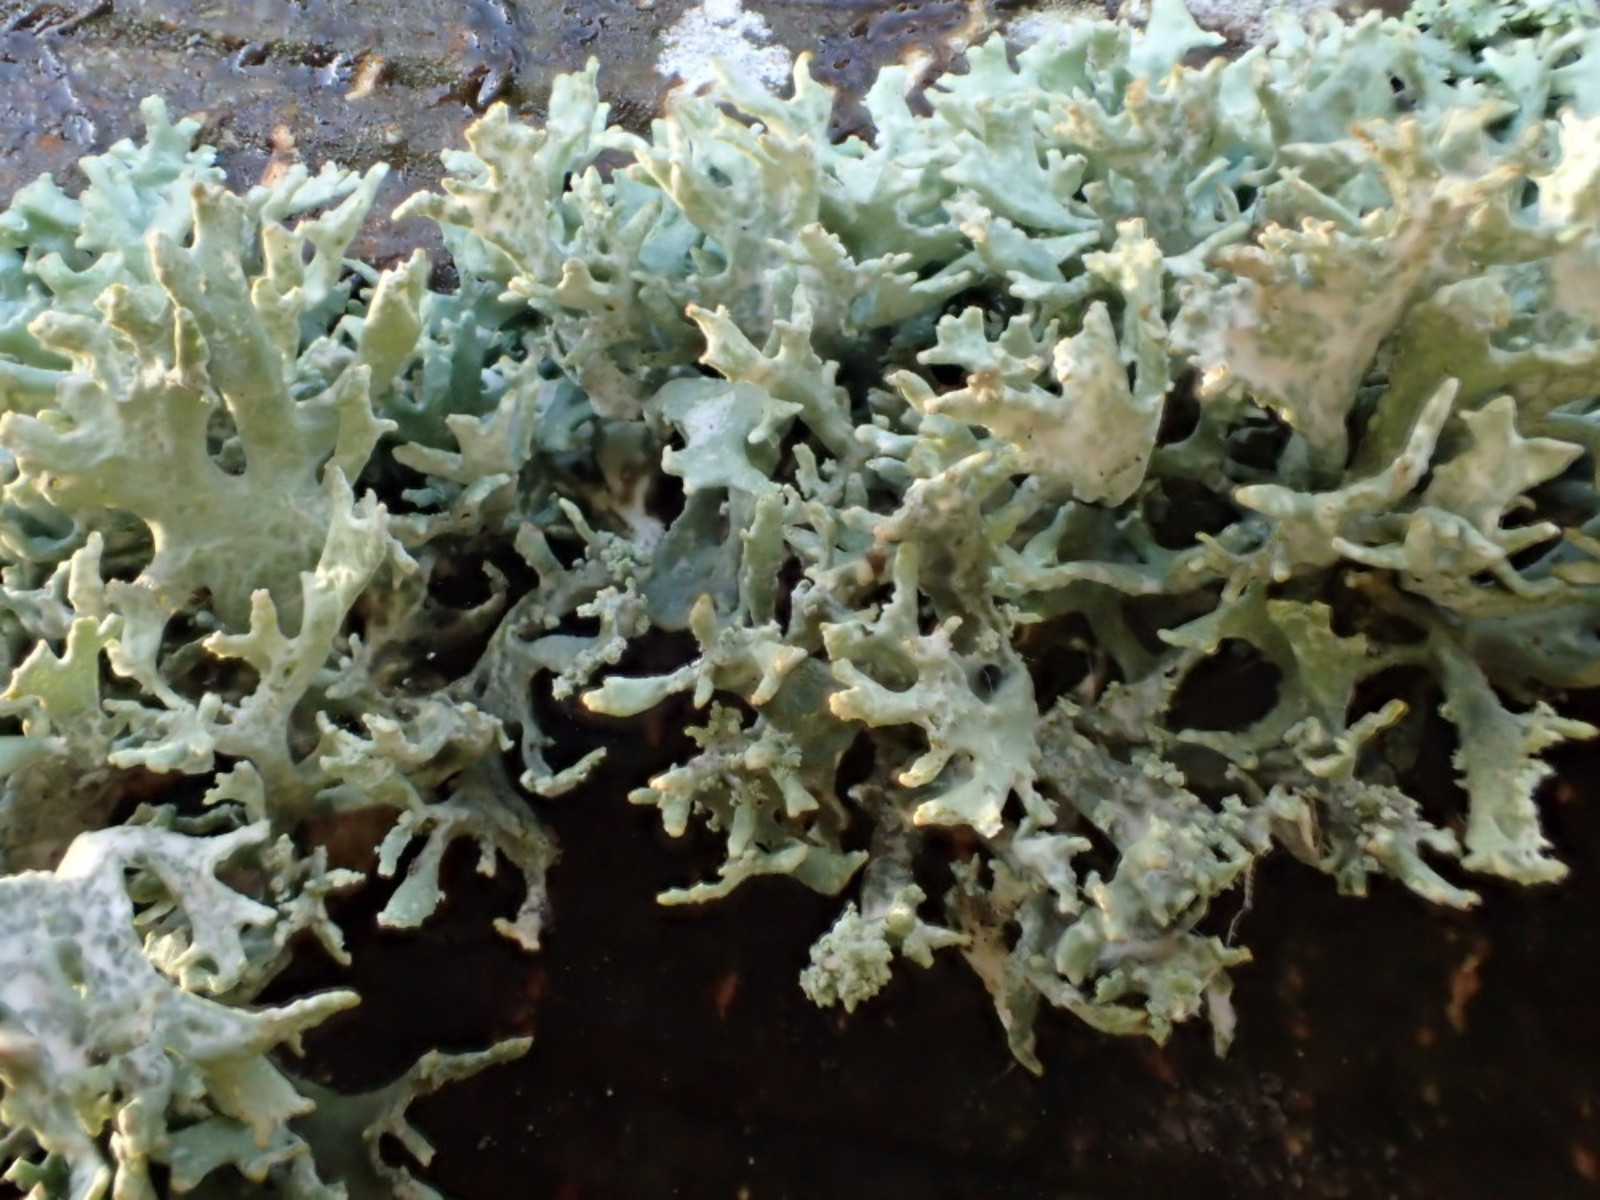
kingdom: Fungi
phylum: Ascomycota
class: Lecanoromycetes
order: Lecanorales
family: Parmeliaceae
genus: Evernia
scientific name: Evernia prunastri
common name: almindelig slåenlav
